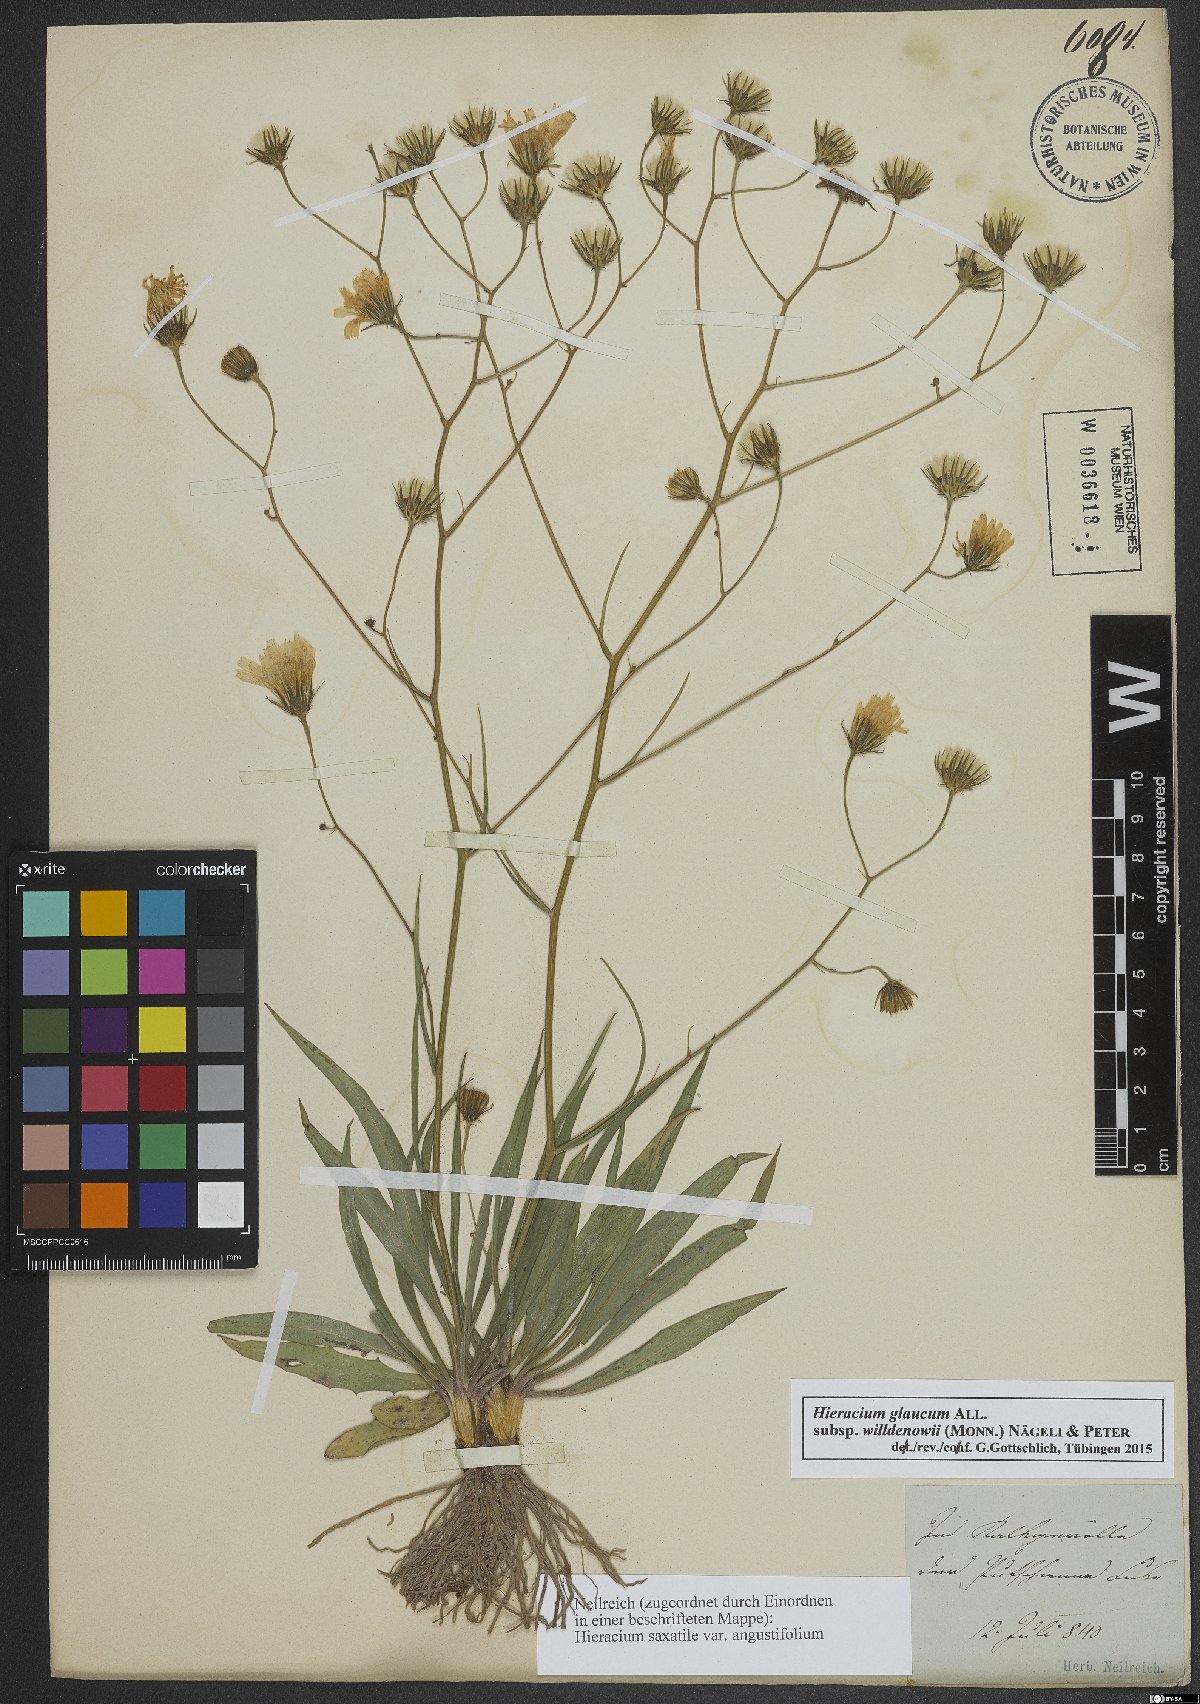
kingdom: Plantae
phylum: Tracheophyta
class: Magnoliopsida
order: Asterales
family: Asteraceae
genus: Hieracium
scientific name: Hieracium glaucum
